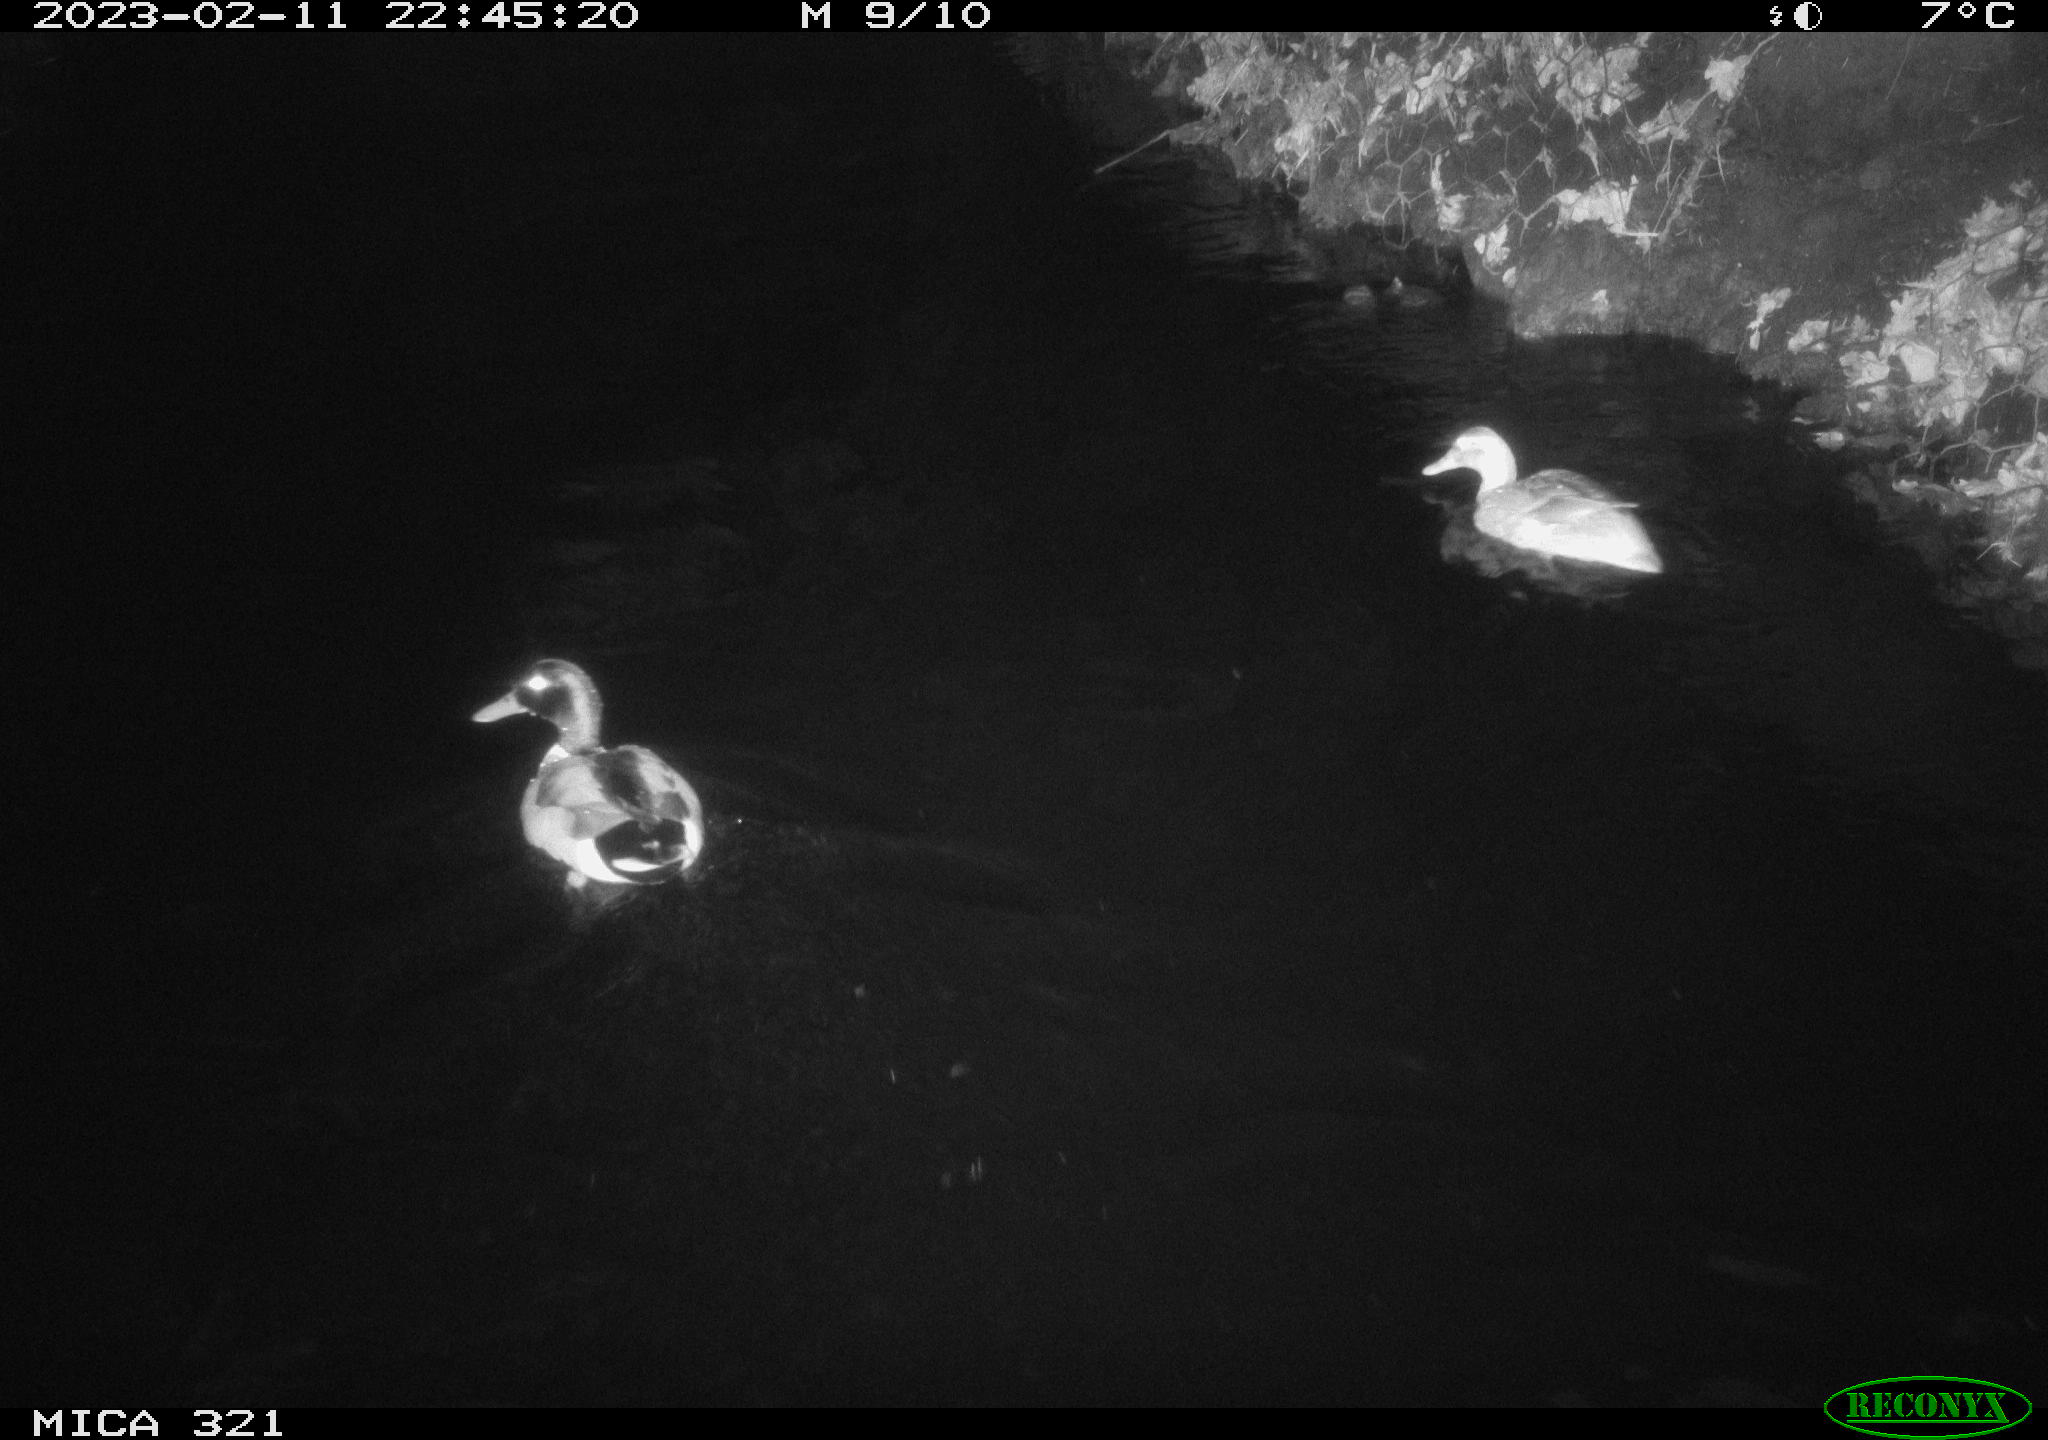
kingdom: Animalia
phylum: Chordata
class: Aves
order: Anseriformes
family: Anatidae
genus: Anas
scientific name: Anas
